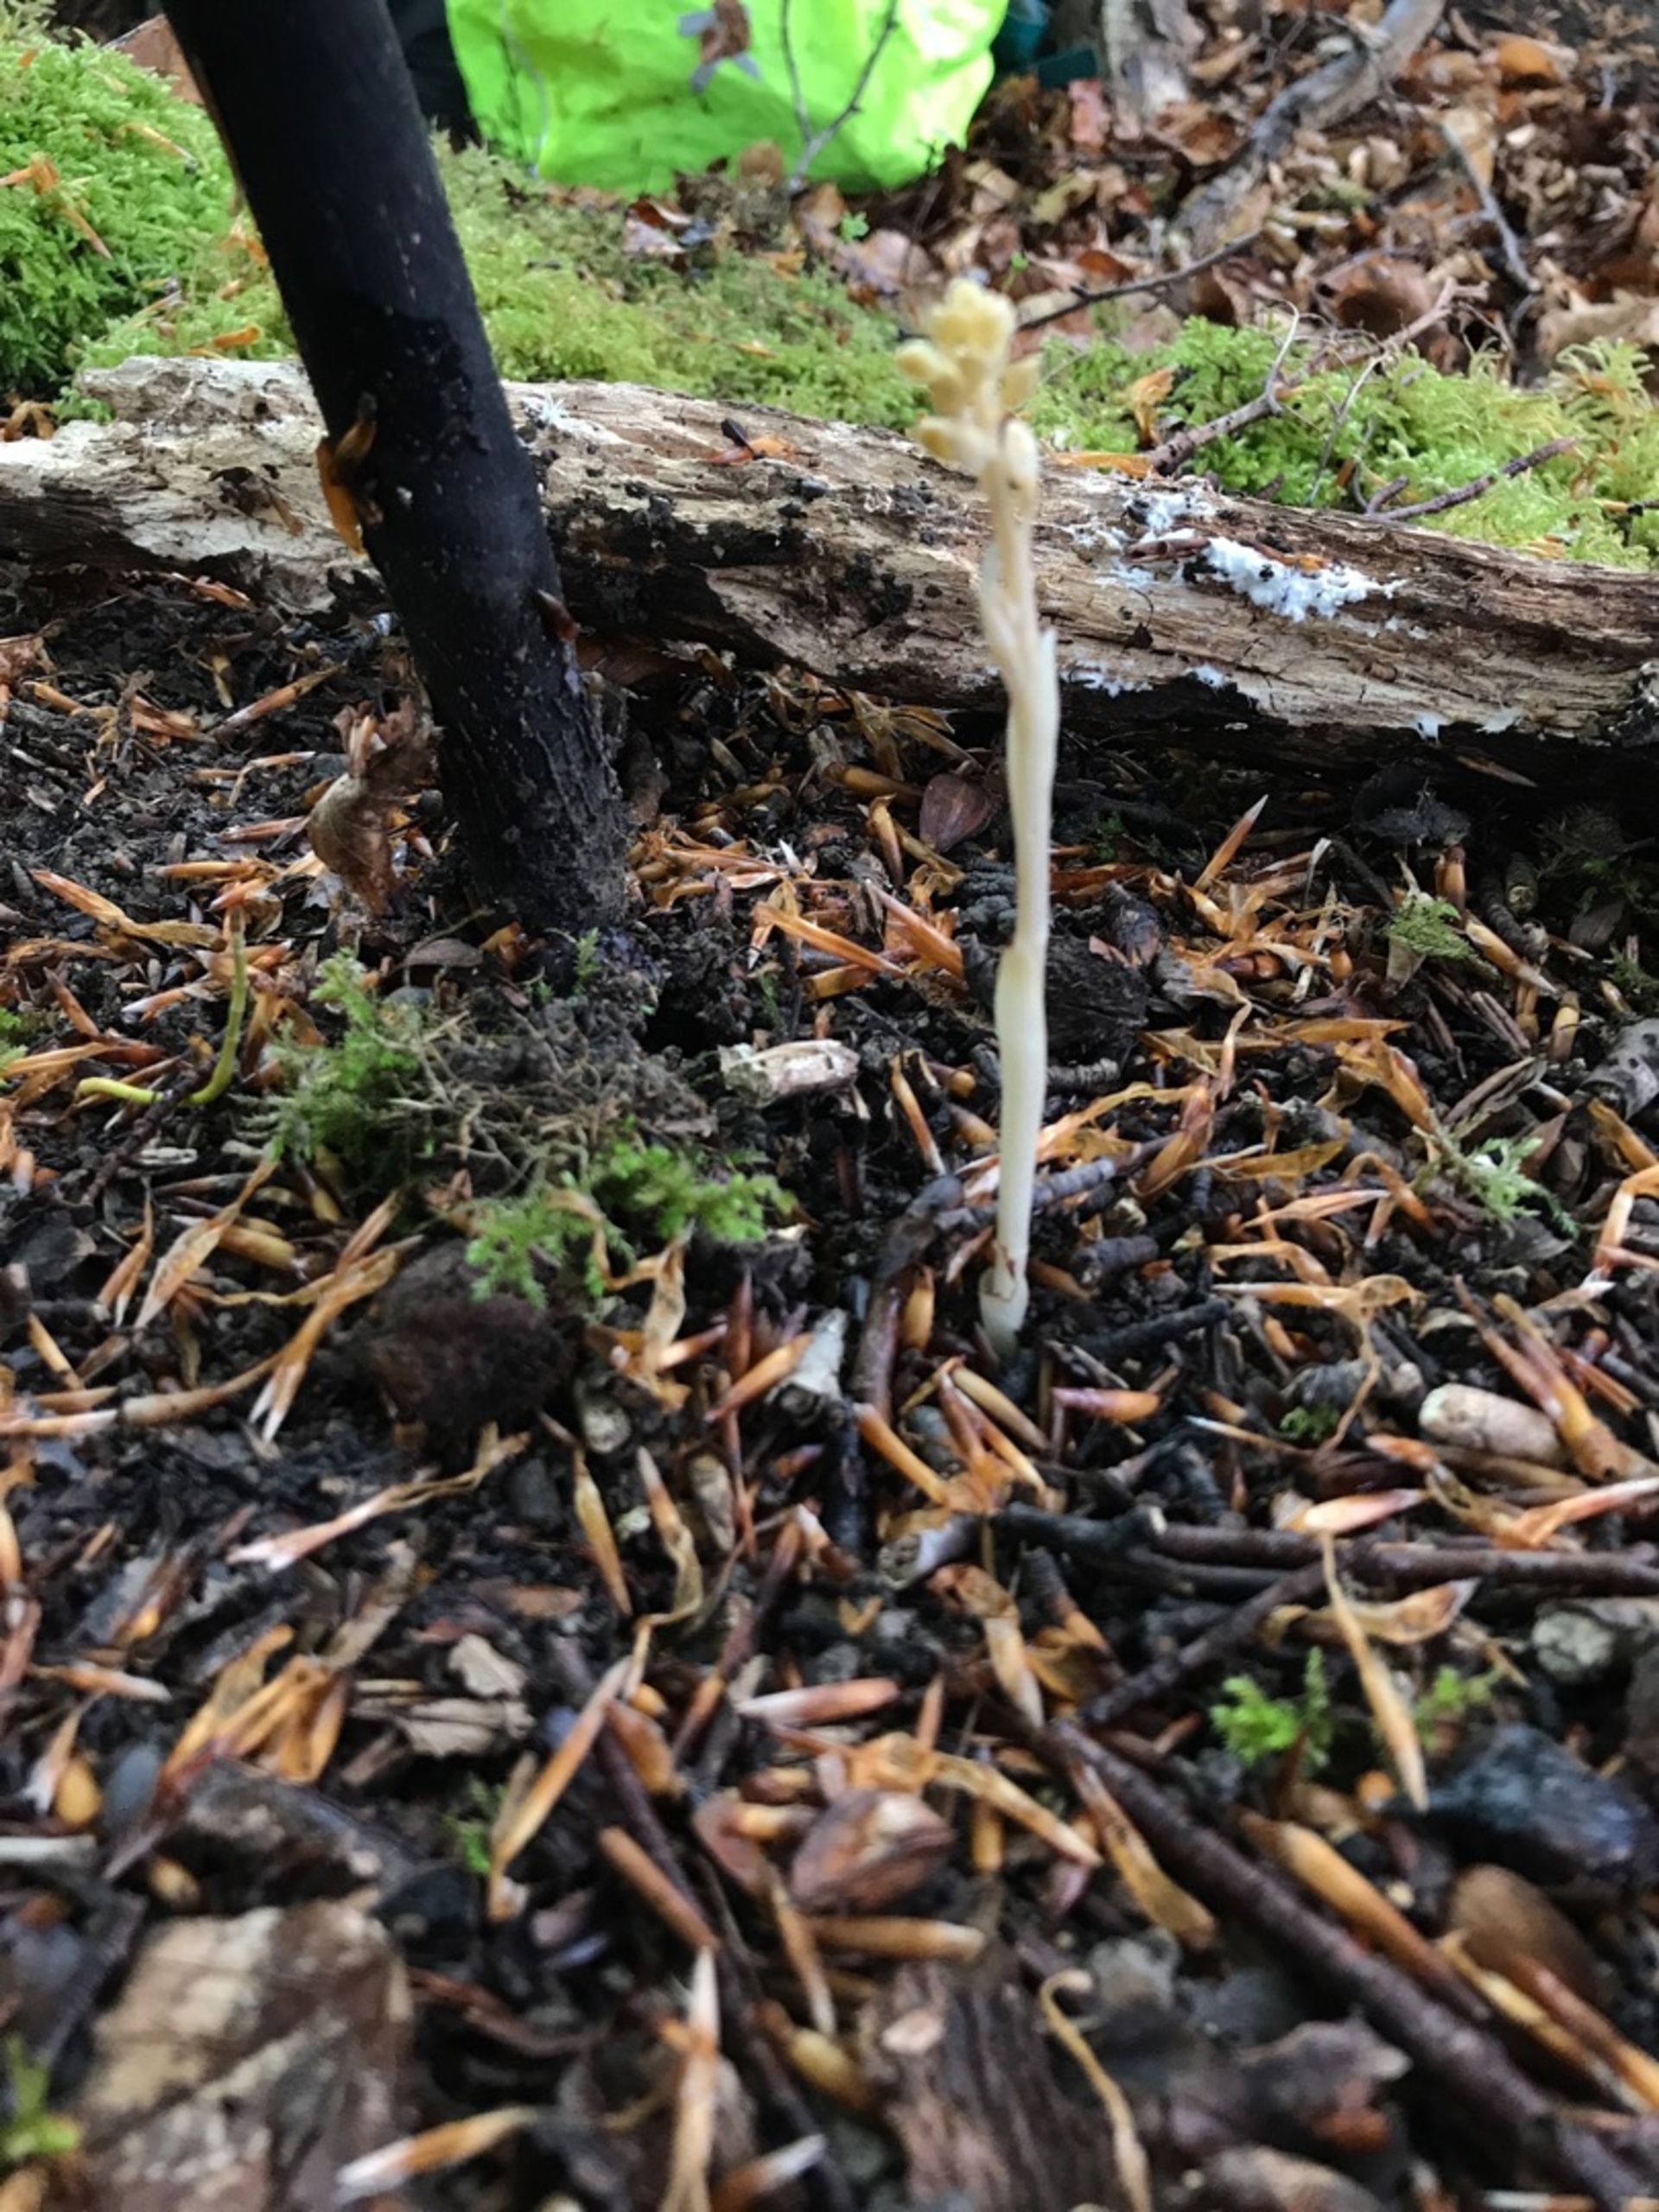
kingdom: Plantae
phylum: Tracheophyta
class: Liliopsida
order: Asparagales
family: Orchidaceae
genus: Neottia
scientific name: Neottia nidus-avis
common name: Rederod
